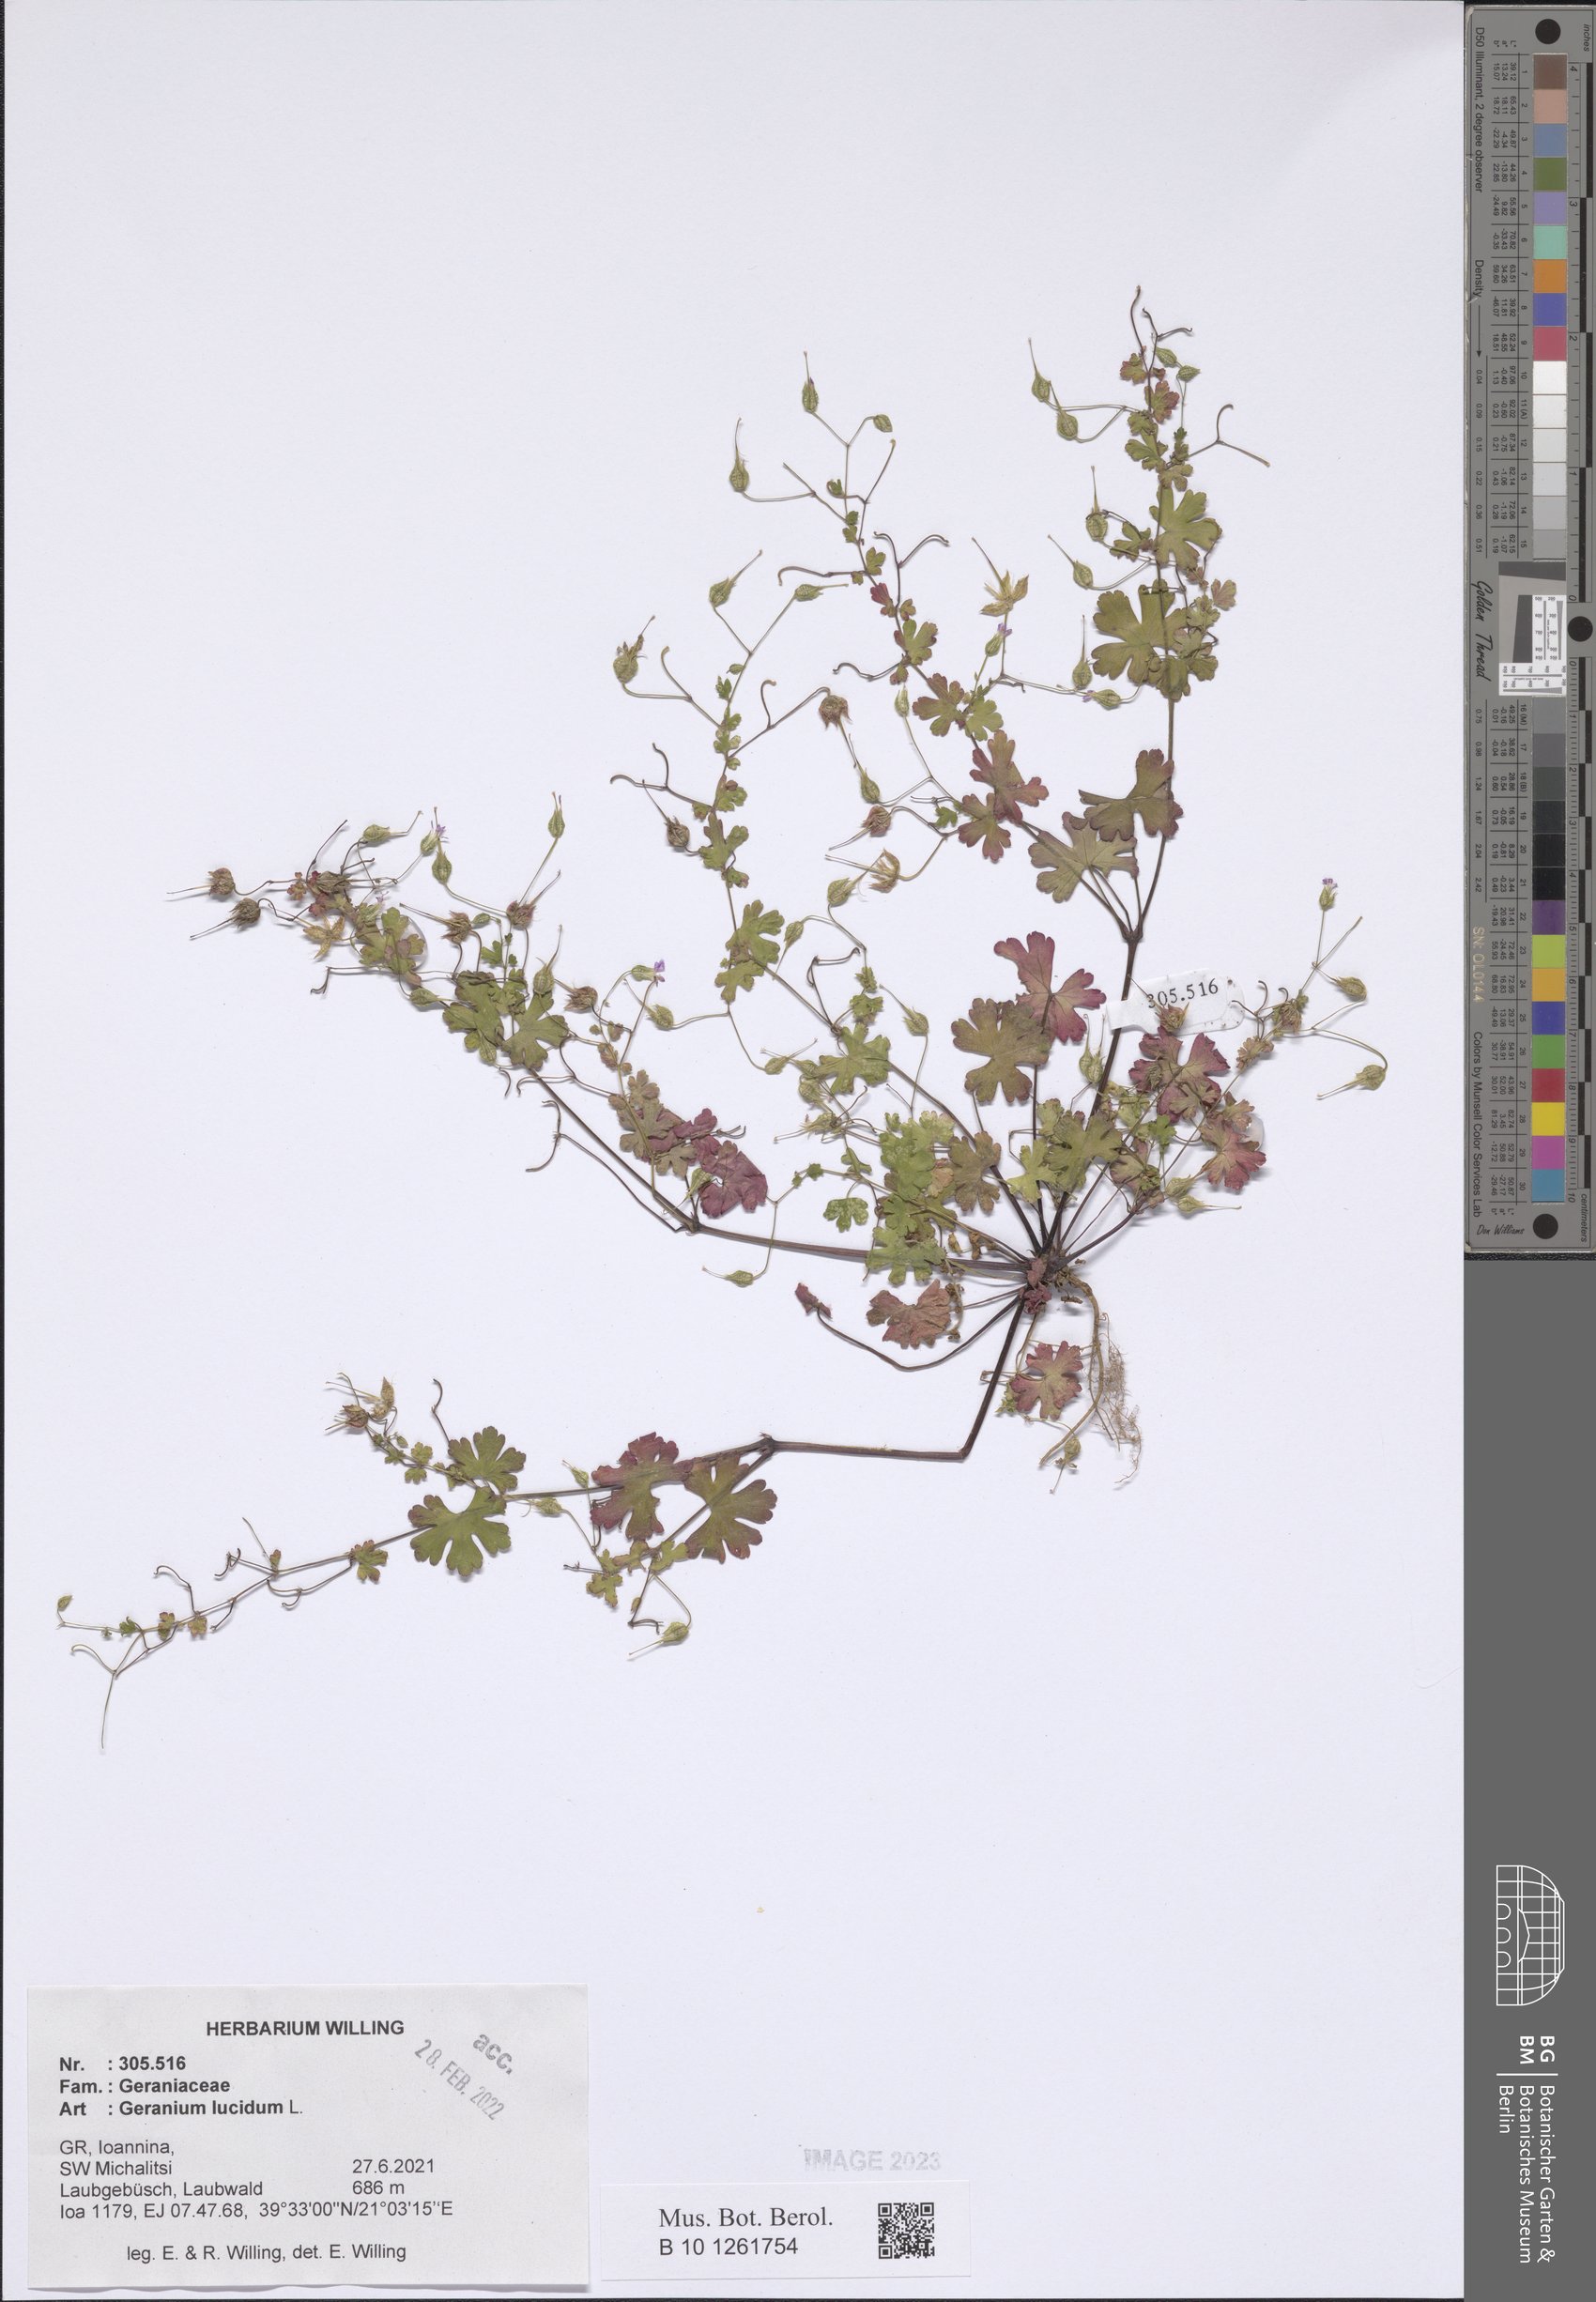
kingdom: Plantae
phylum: Tracheophyta
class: Magnoliopsida
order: Geraniales
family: Geraniaceae
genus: Geranium
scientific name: Geranium lucidum
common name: Shining crane's-bill
